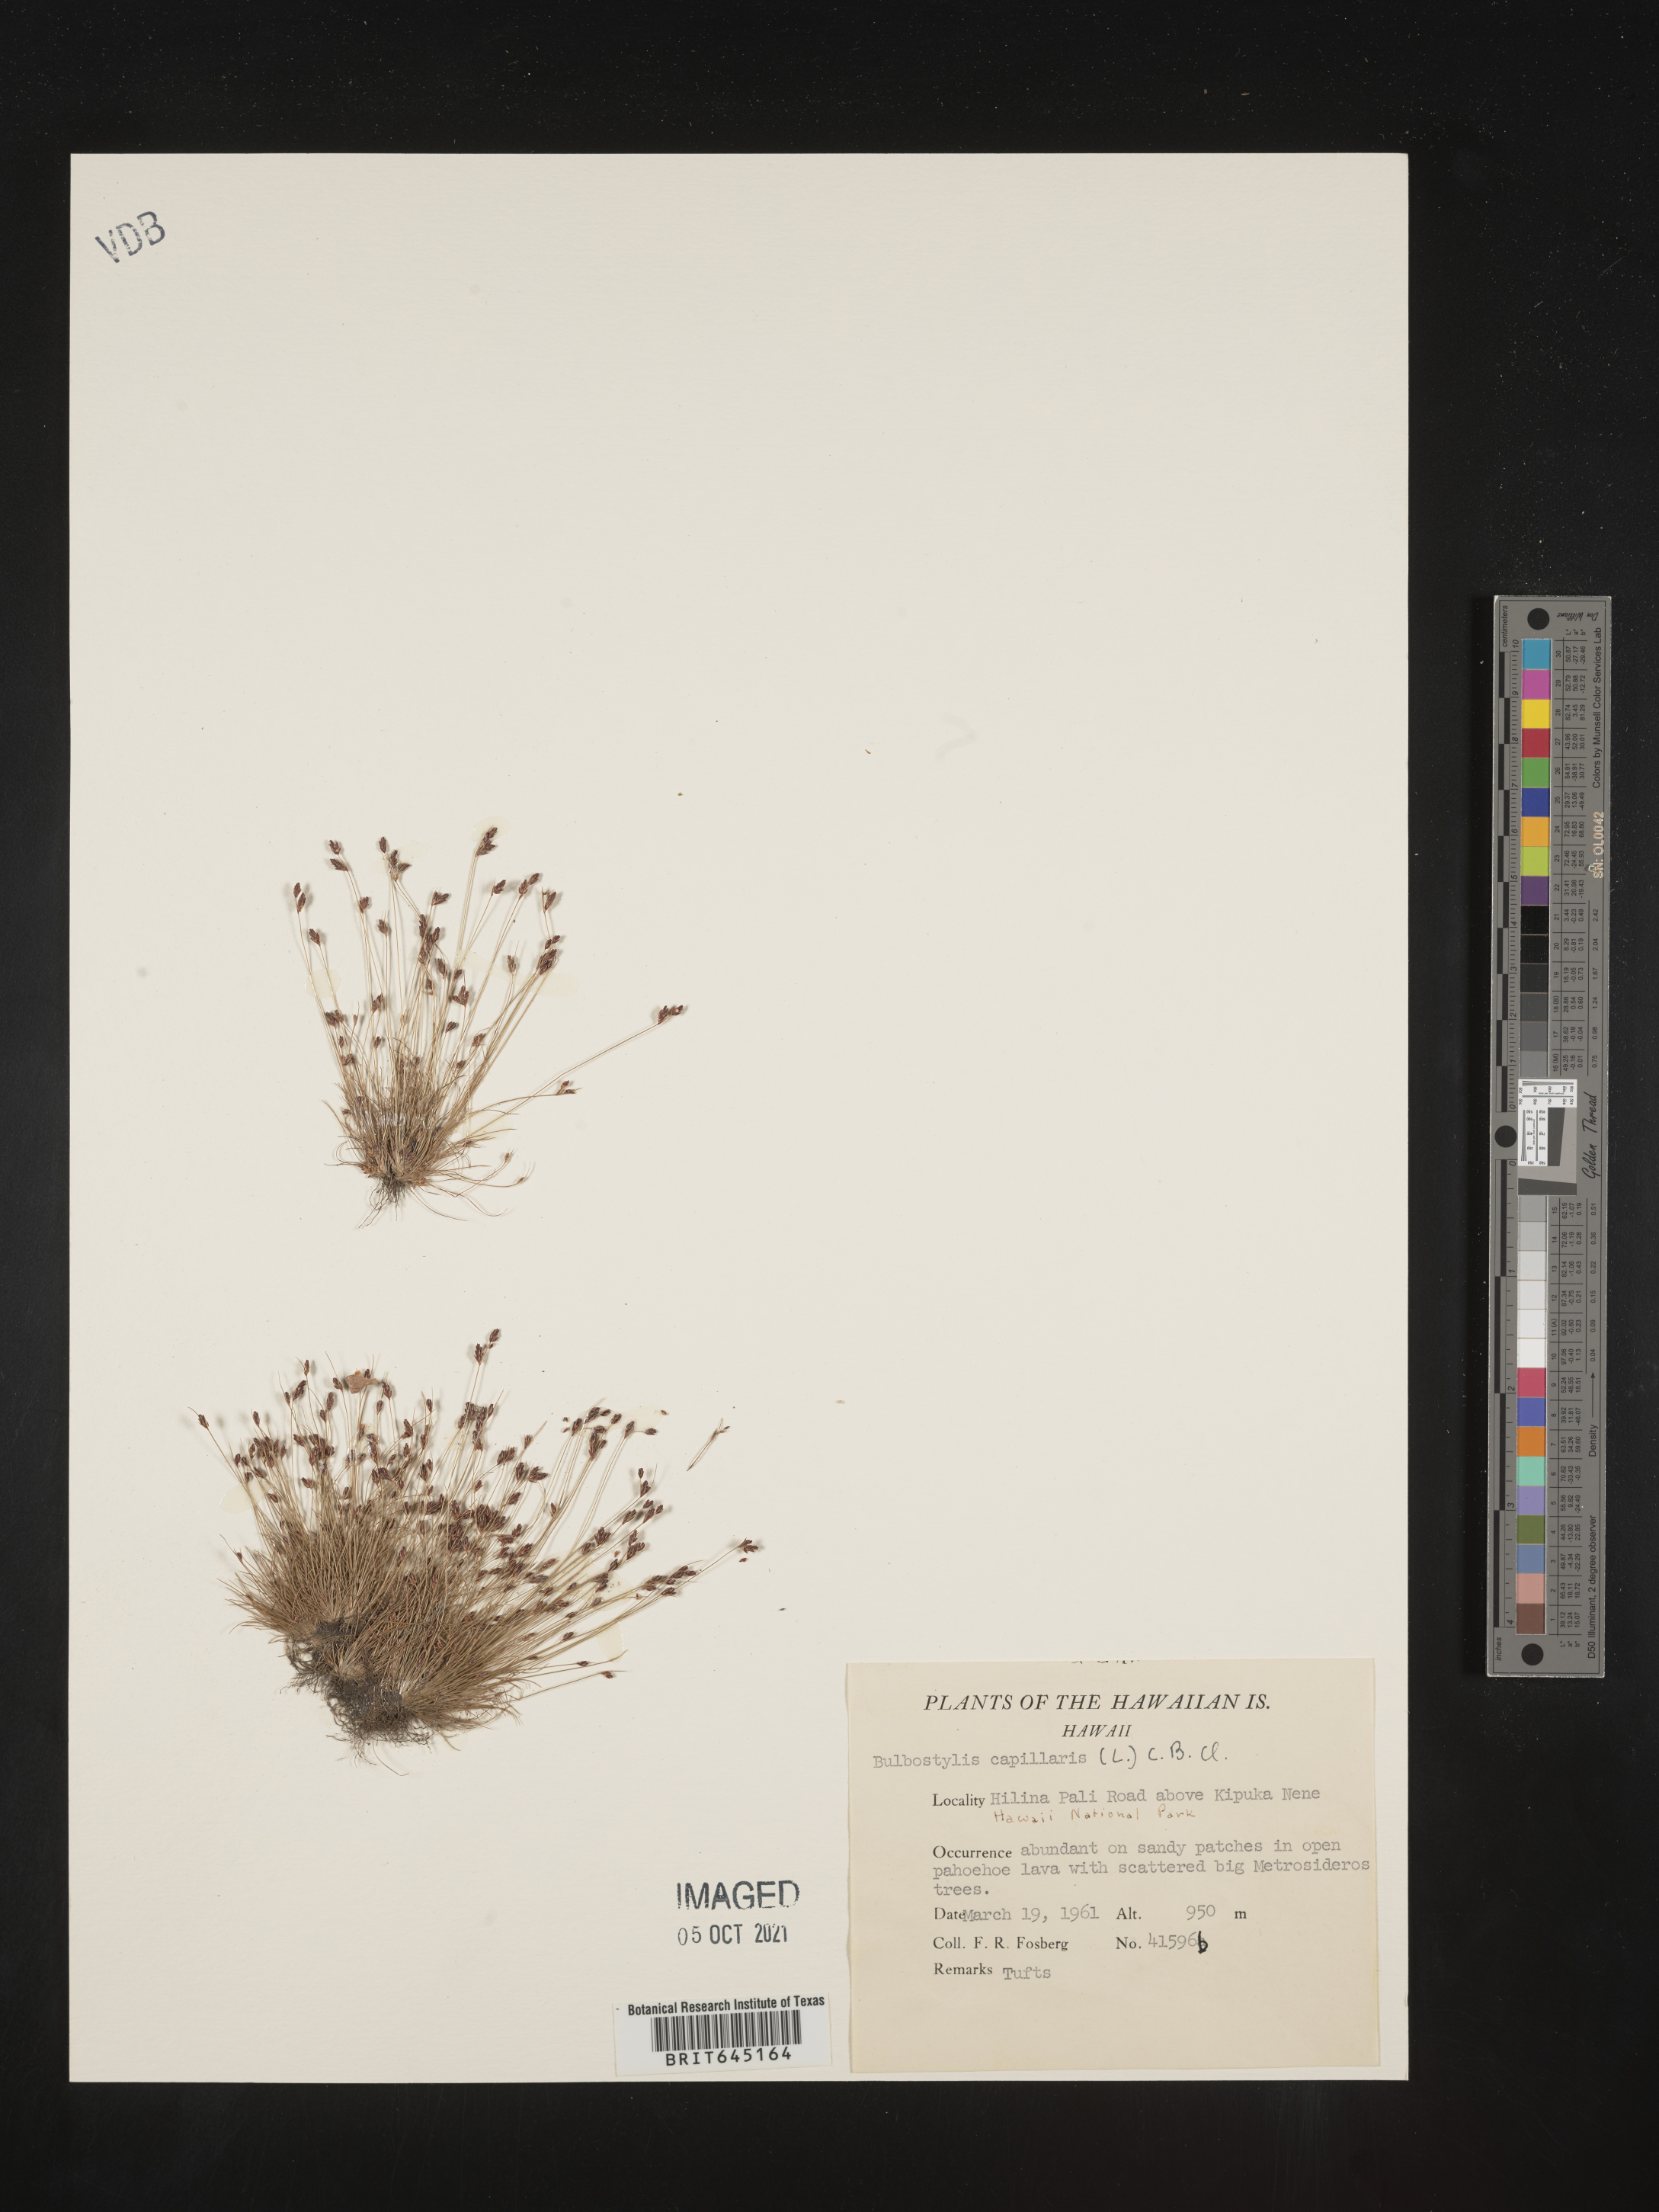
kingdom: Plantae
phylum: Tracheophyta
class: Liliopsida
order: Poales
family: Cyperaceae
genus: Bulbostylis
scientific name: Bulbostylis capillaris
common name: Densetuft hairsedge
